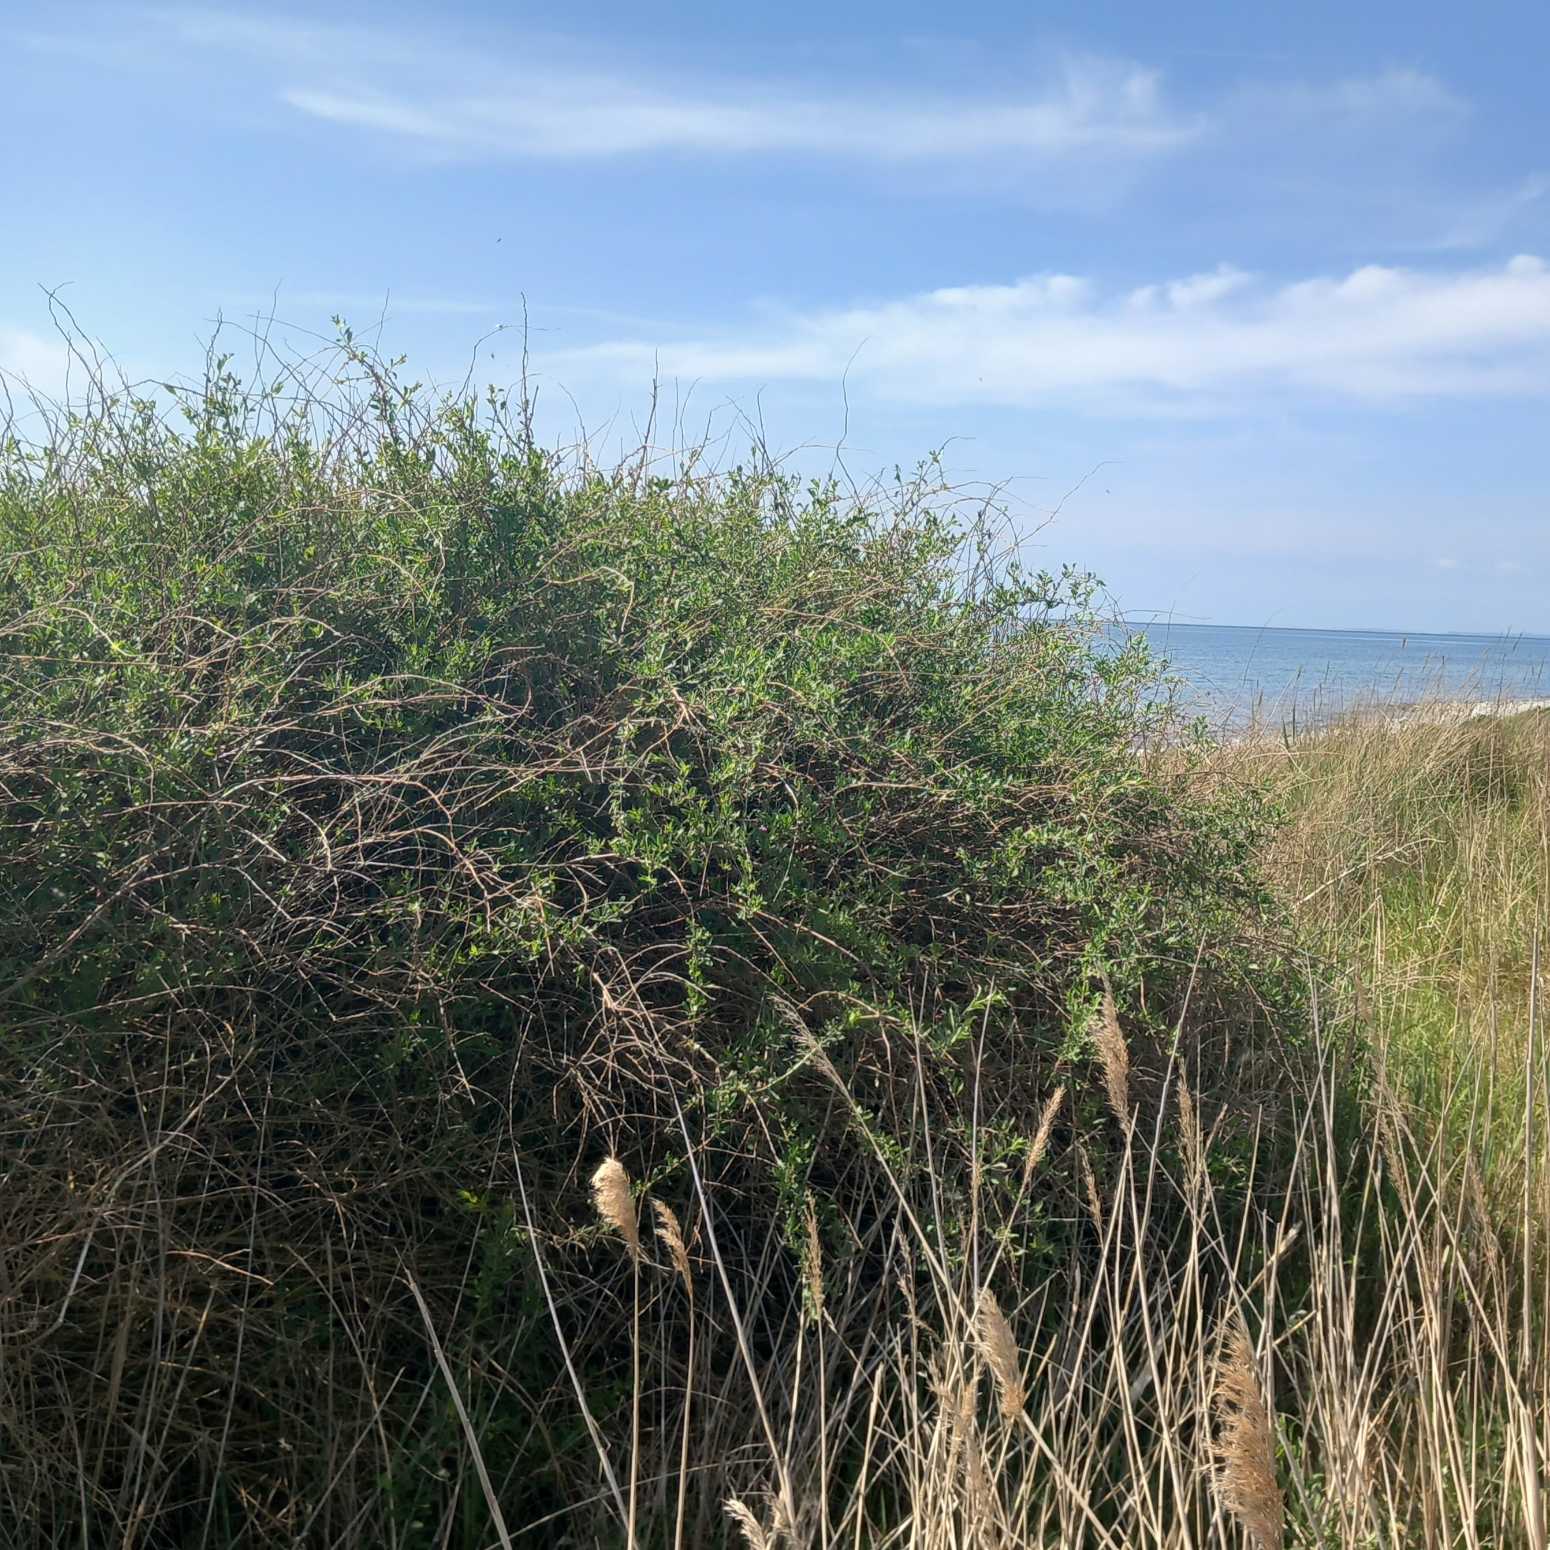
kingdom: Plantae
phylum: Tracheophyta
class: Magnoliopsida
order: Solanales
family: Solanaceae
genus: Lycium
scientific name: Lycium barbarum
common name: Bukketorn
